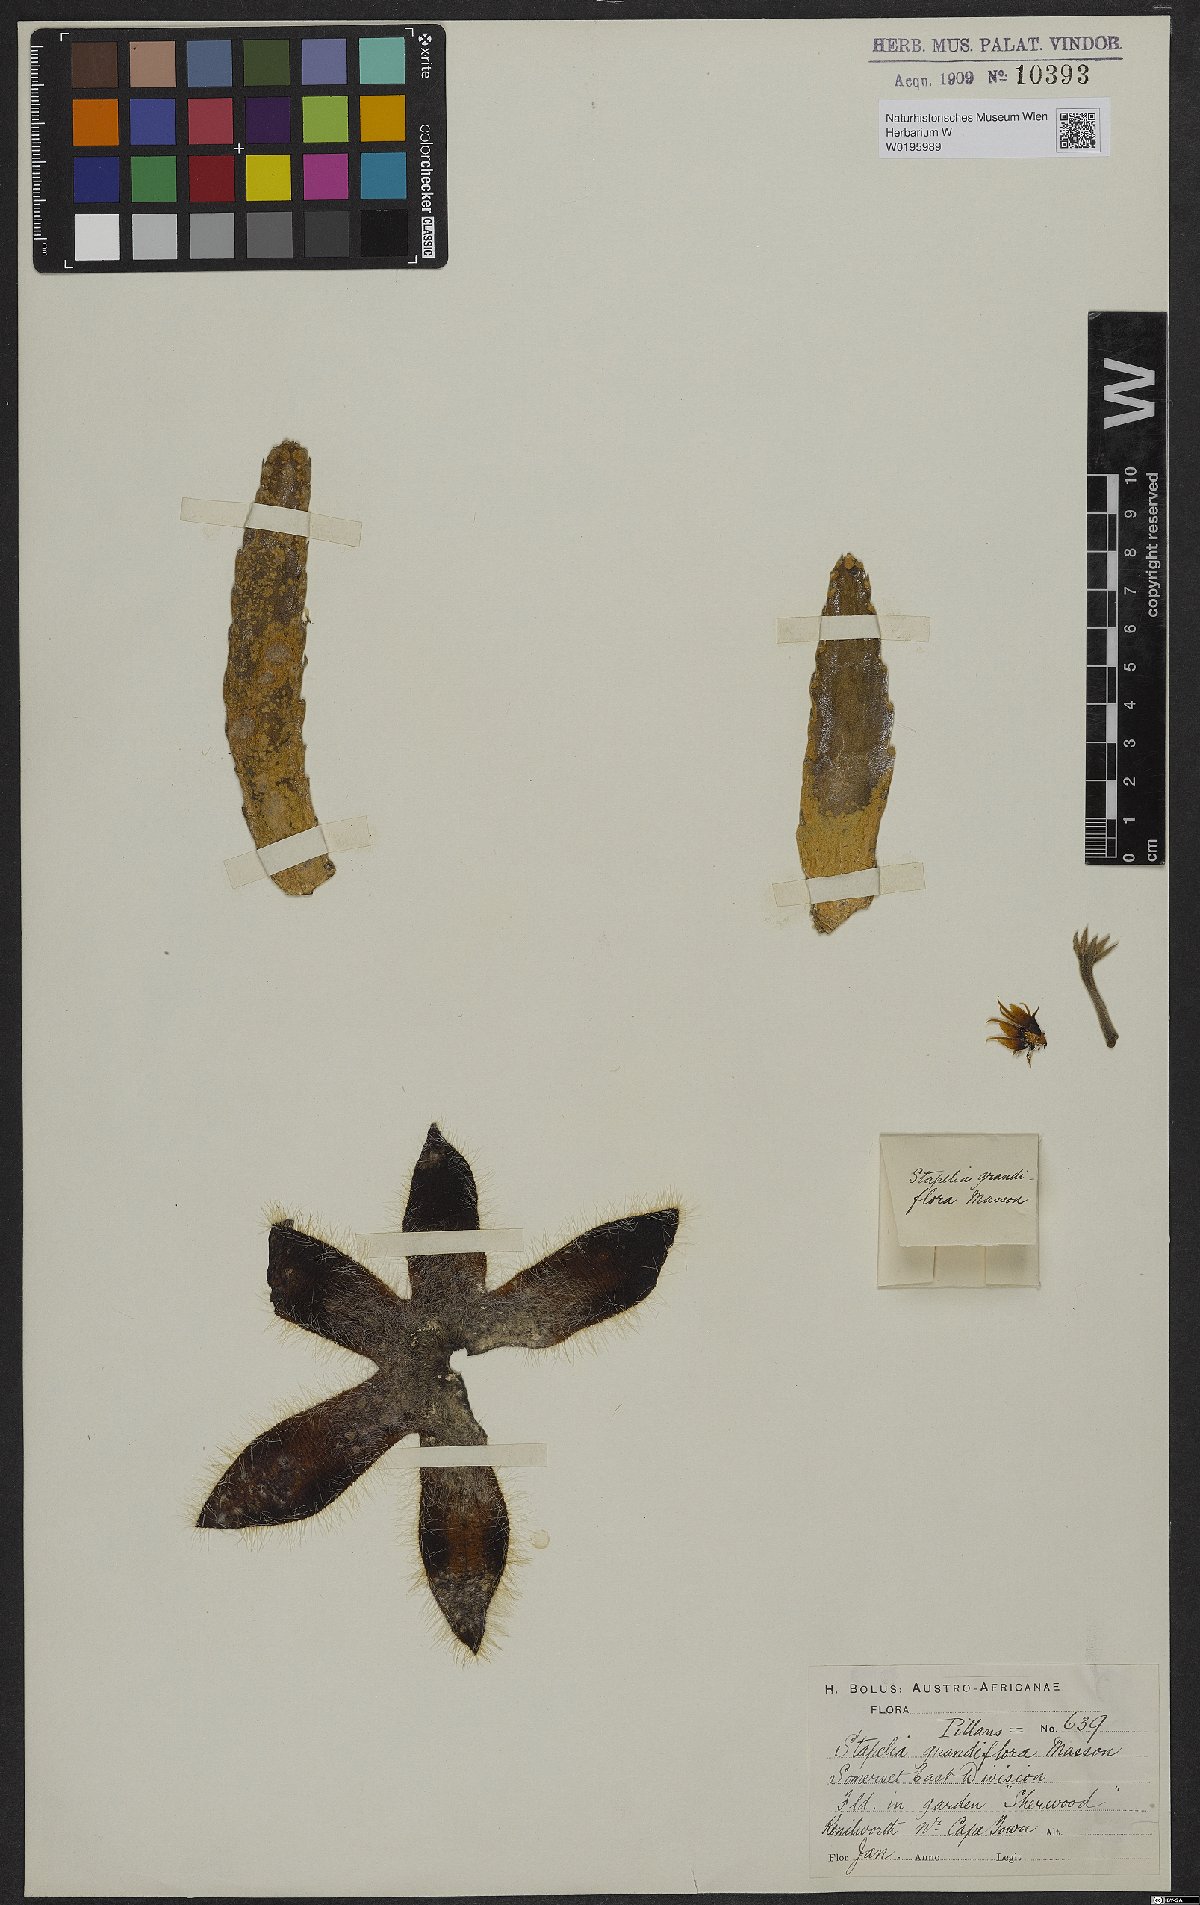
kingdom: Plantae
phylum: Tracheophyta
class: Magnoliopsida
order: Gentianales
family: Apocynaceae
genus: Ceropegia
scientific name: Ceropegia grandiflora
